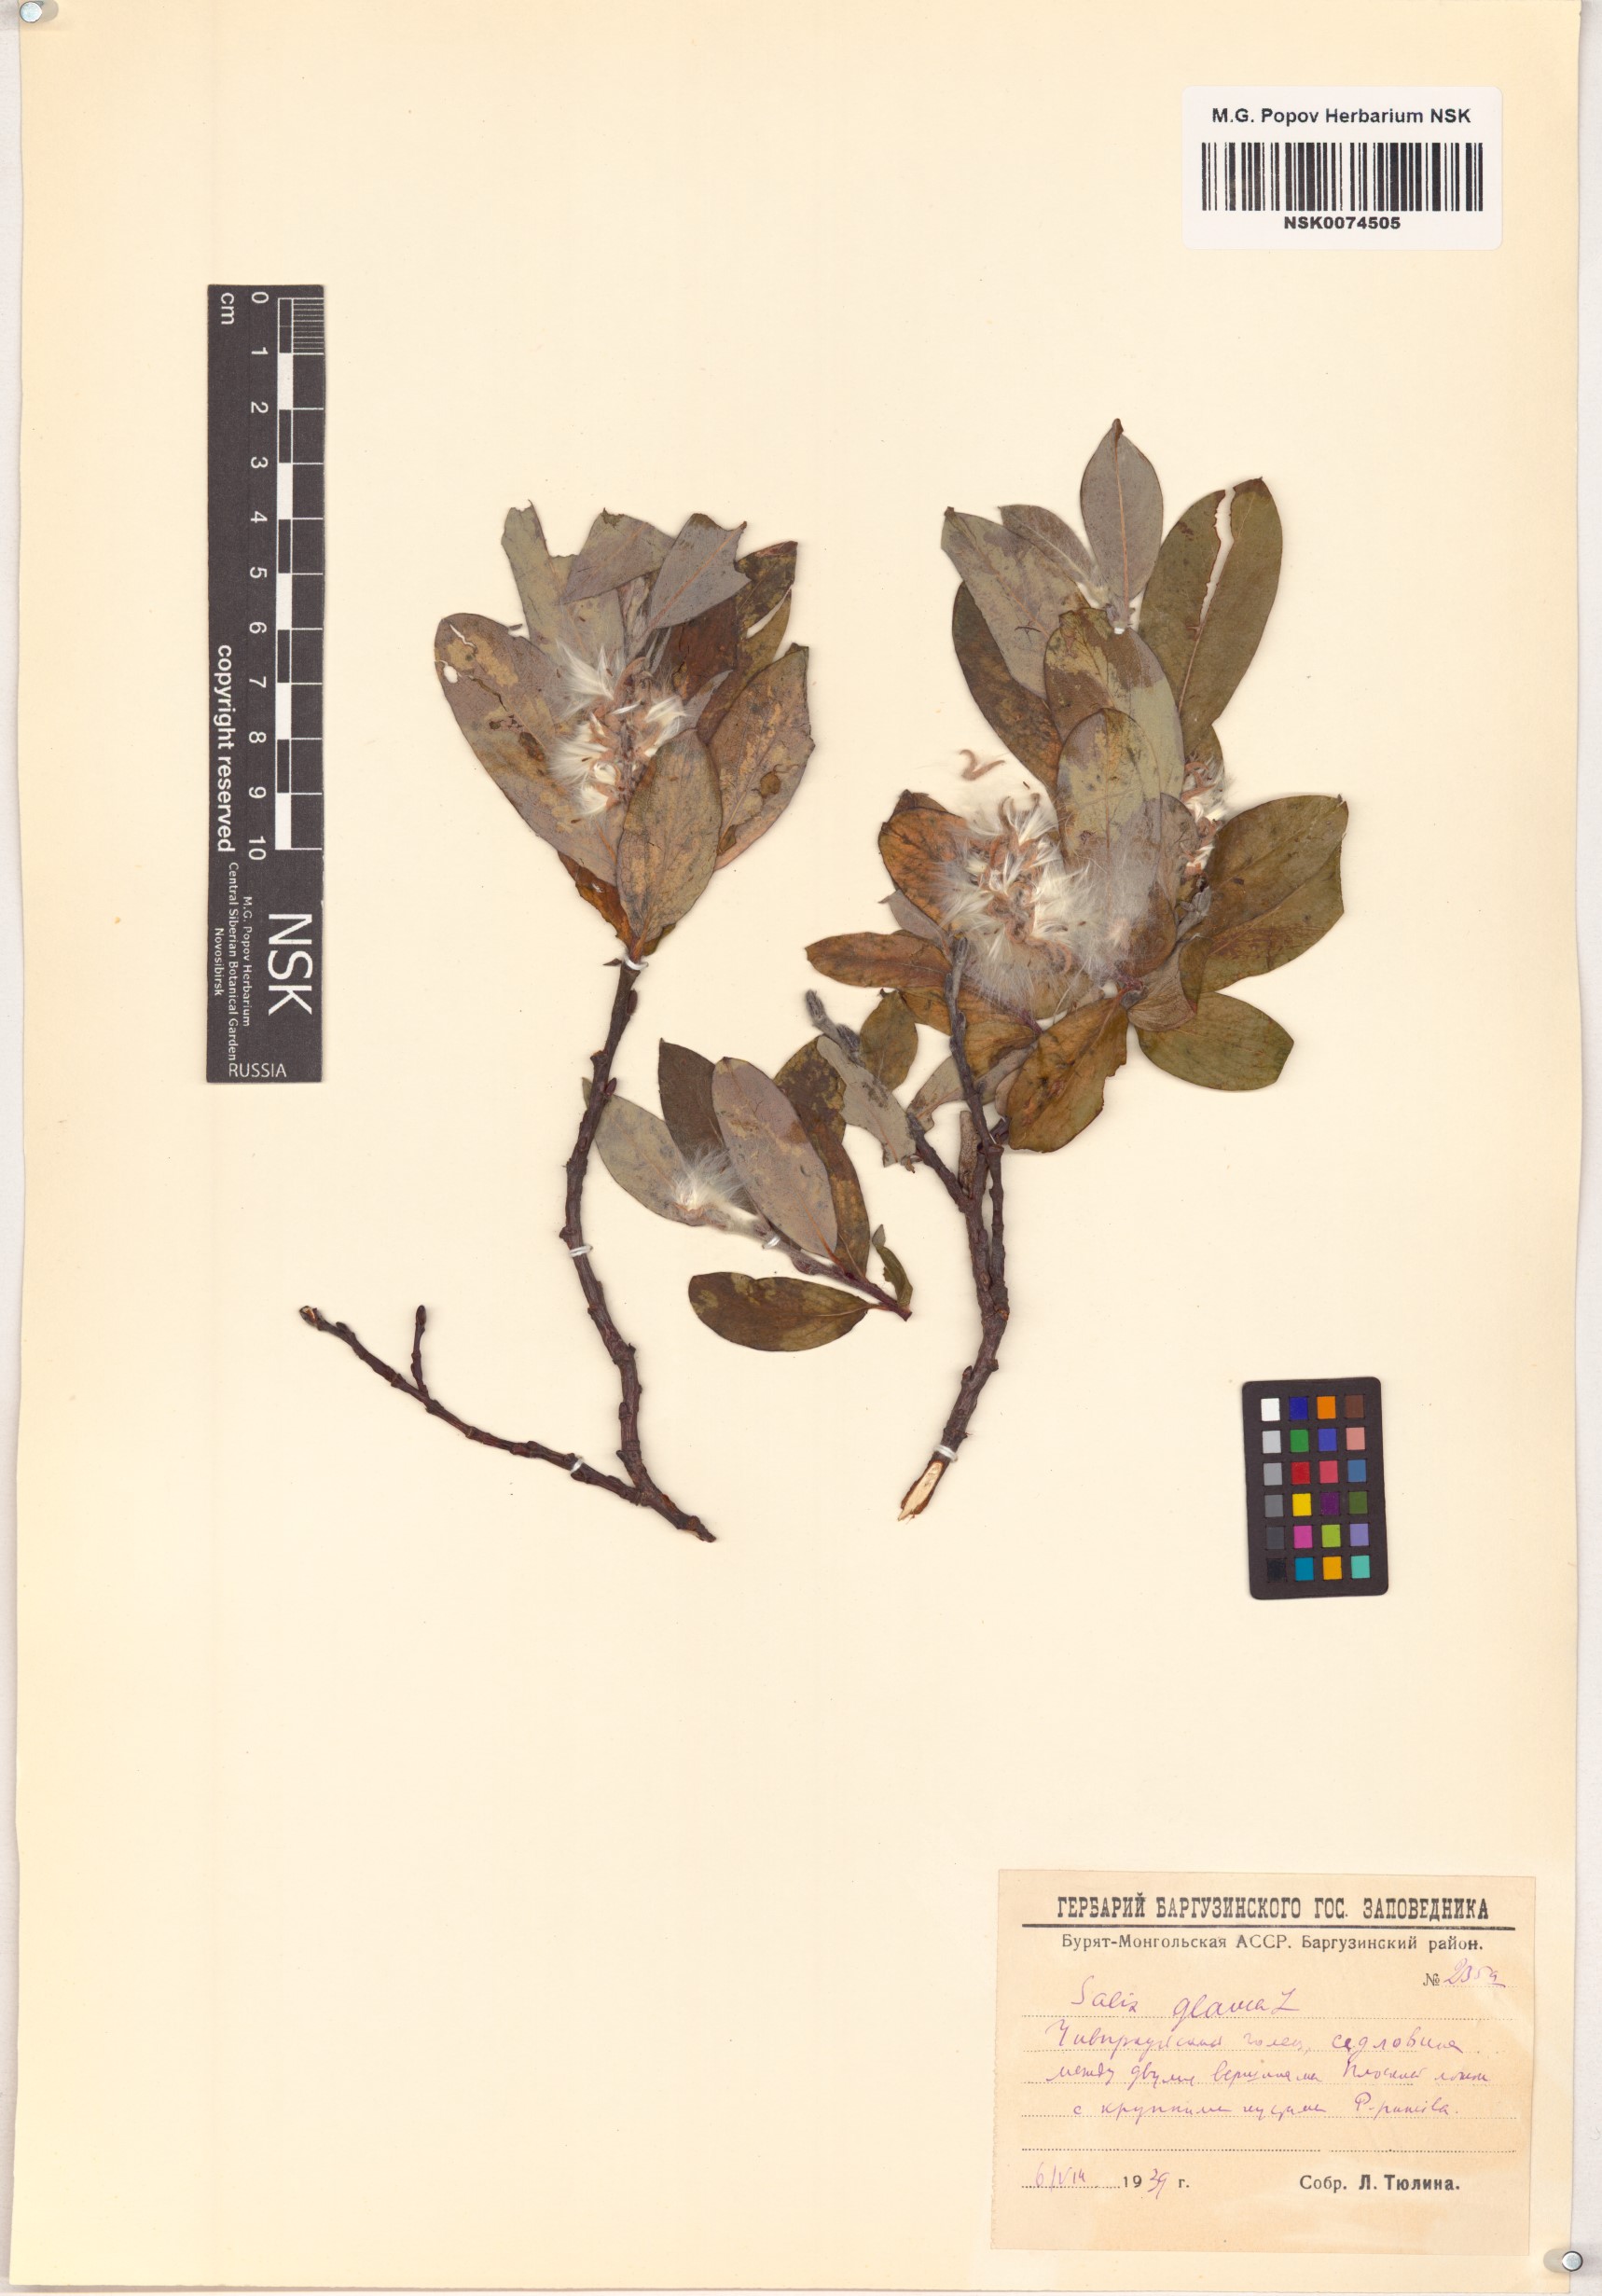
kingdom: Plantae
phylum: Tracheophyta
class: Magnoliopsida
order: Malpighiales
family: Salicaceae
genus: Salix
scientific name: Salix glauca
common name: Glaucous willow
